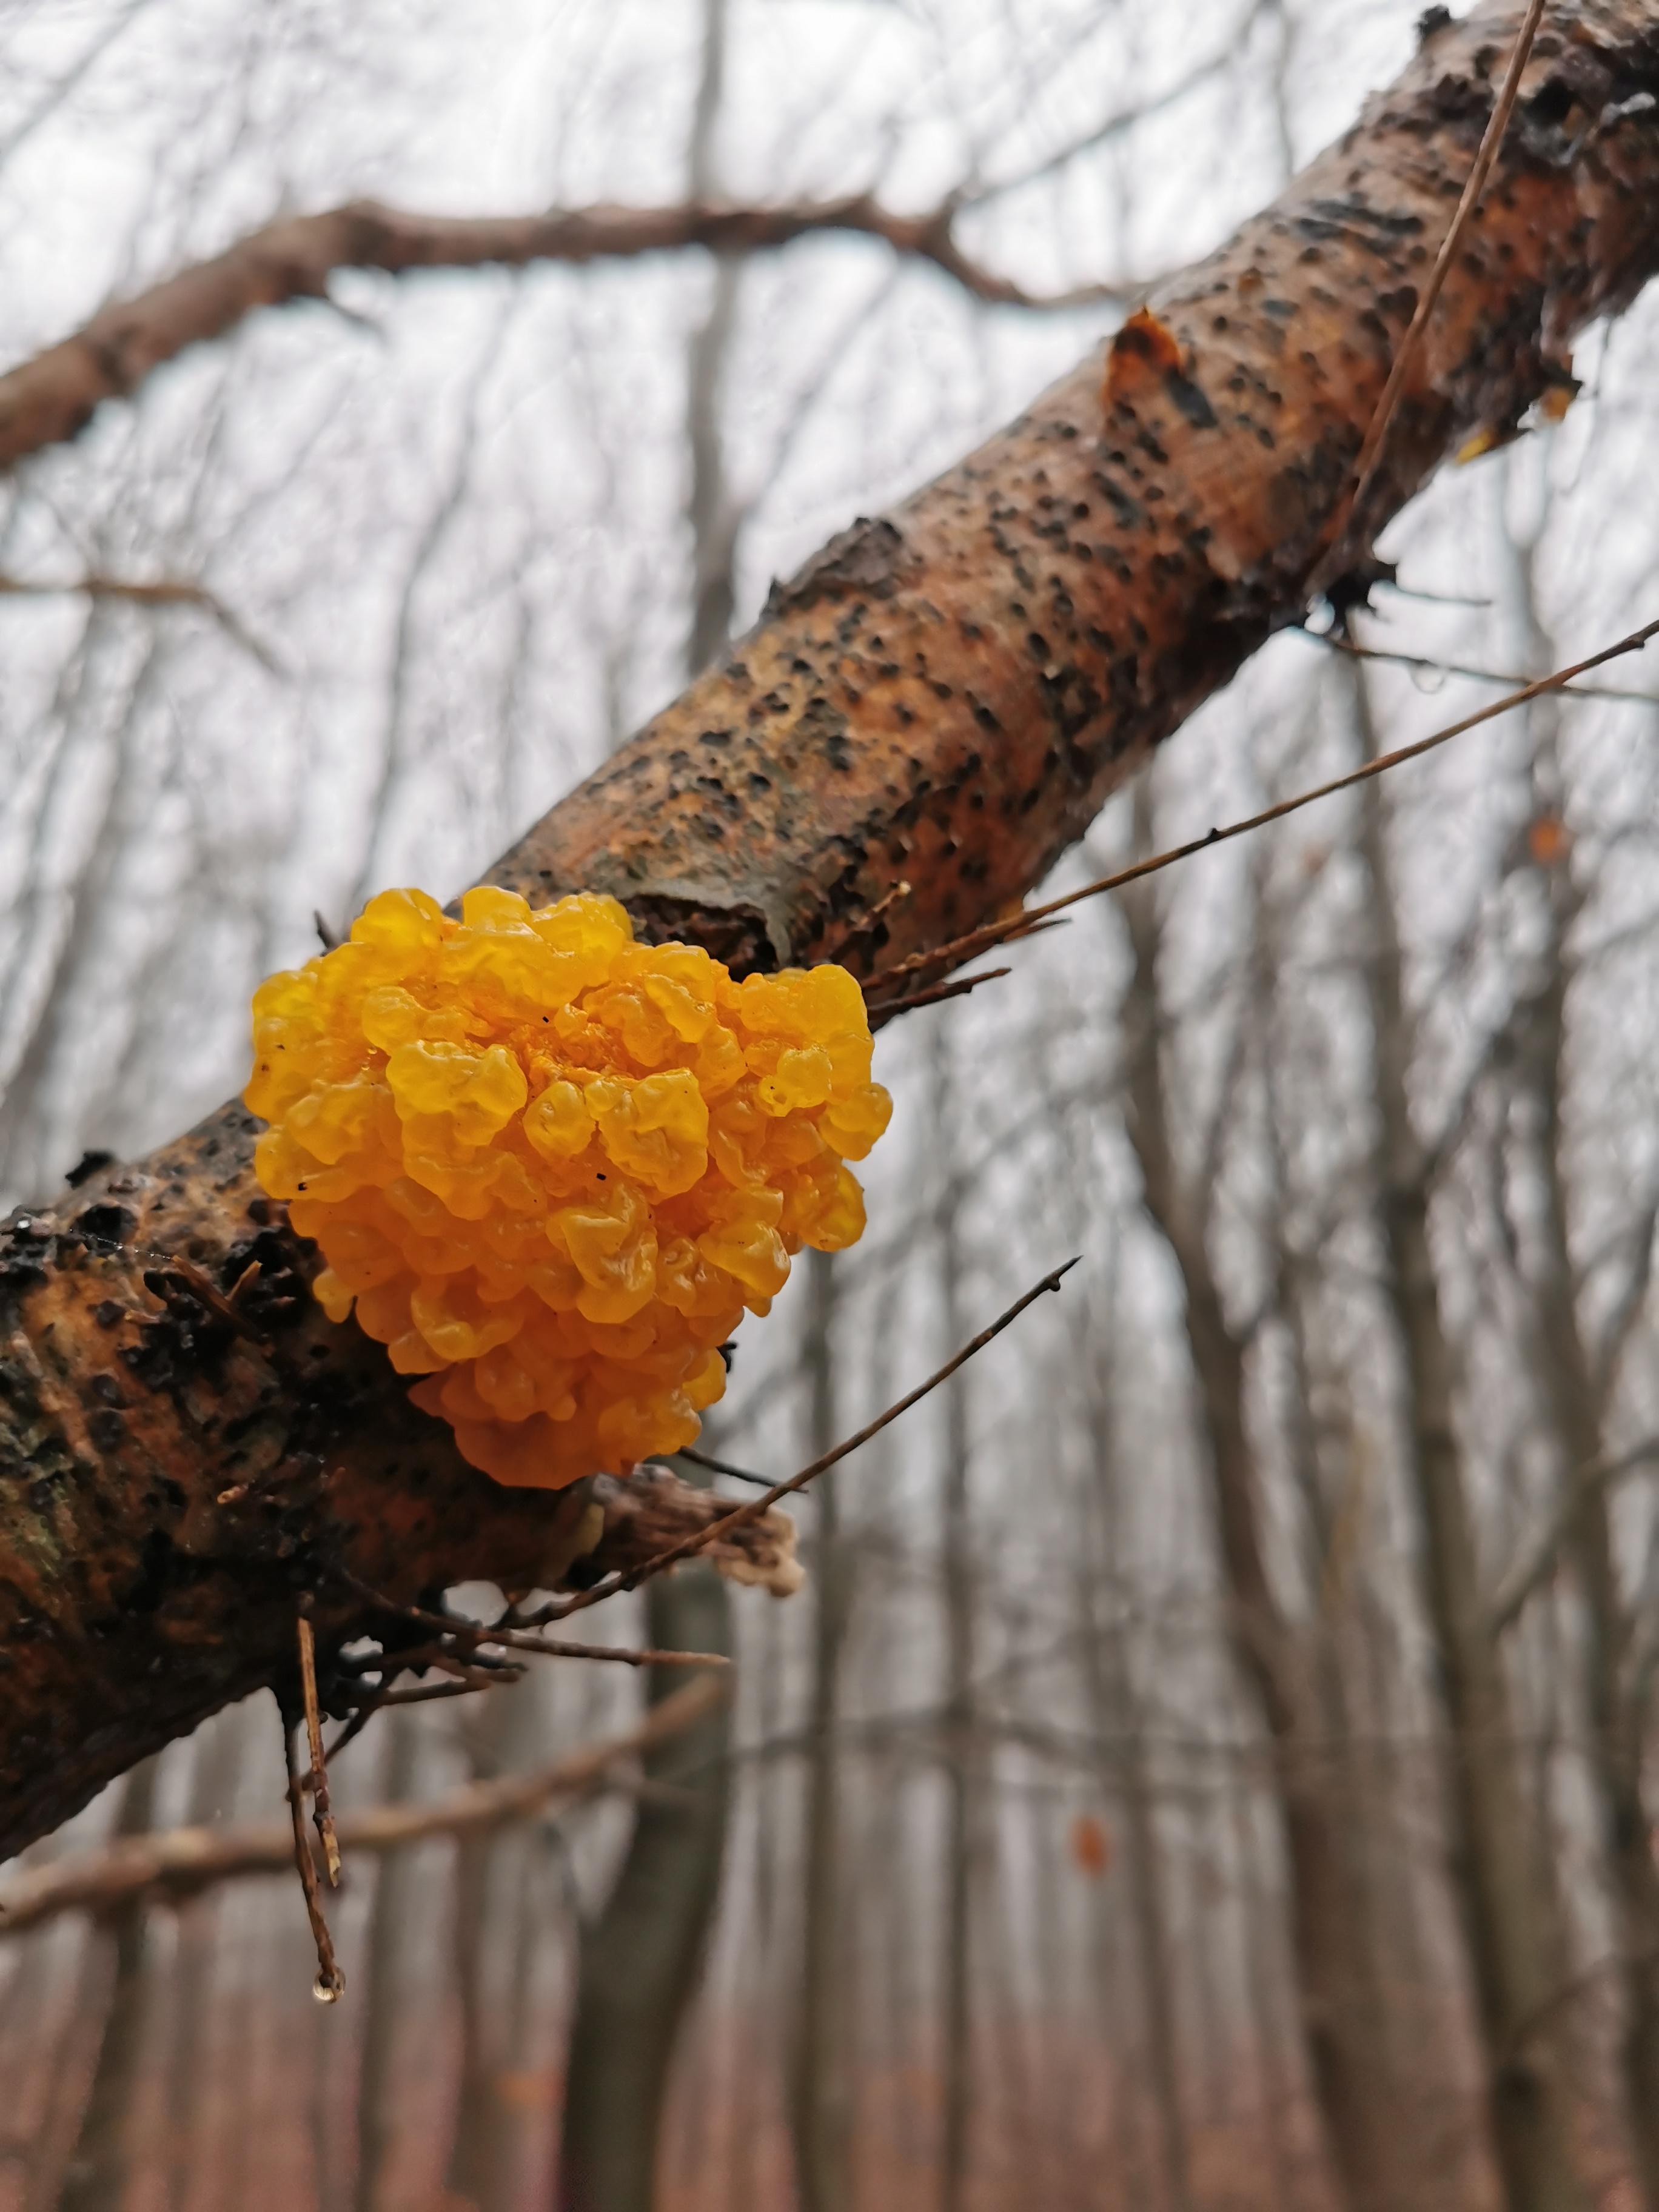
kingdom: Fungi
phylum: Basidiomycota
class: Tremellomycetes
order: Tremellales
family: Tremellaceae
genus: Tremella
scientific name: Tremella mesenterica
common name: gul bævresvamp
